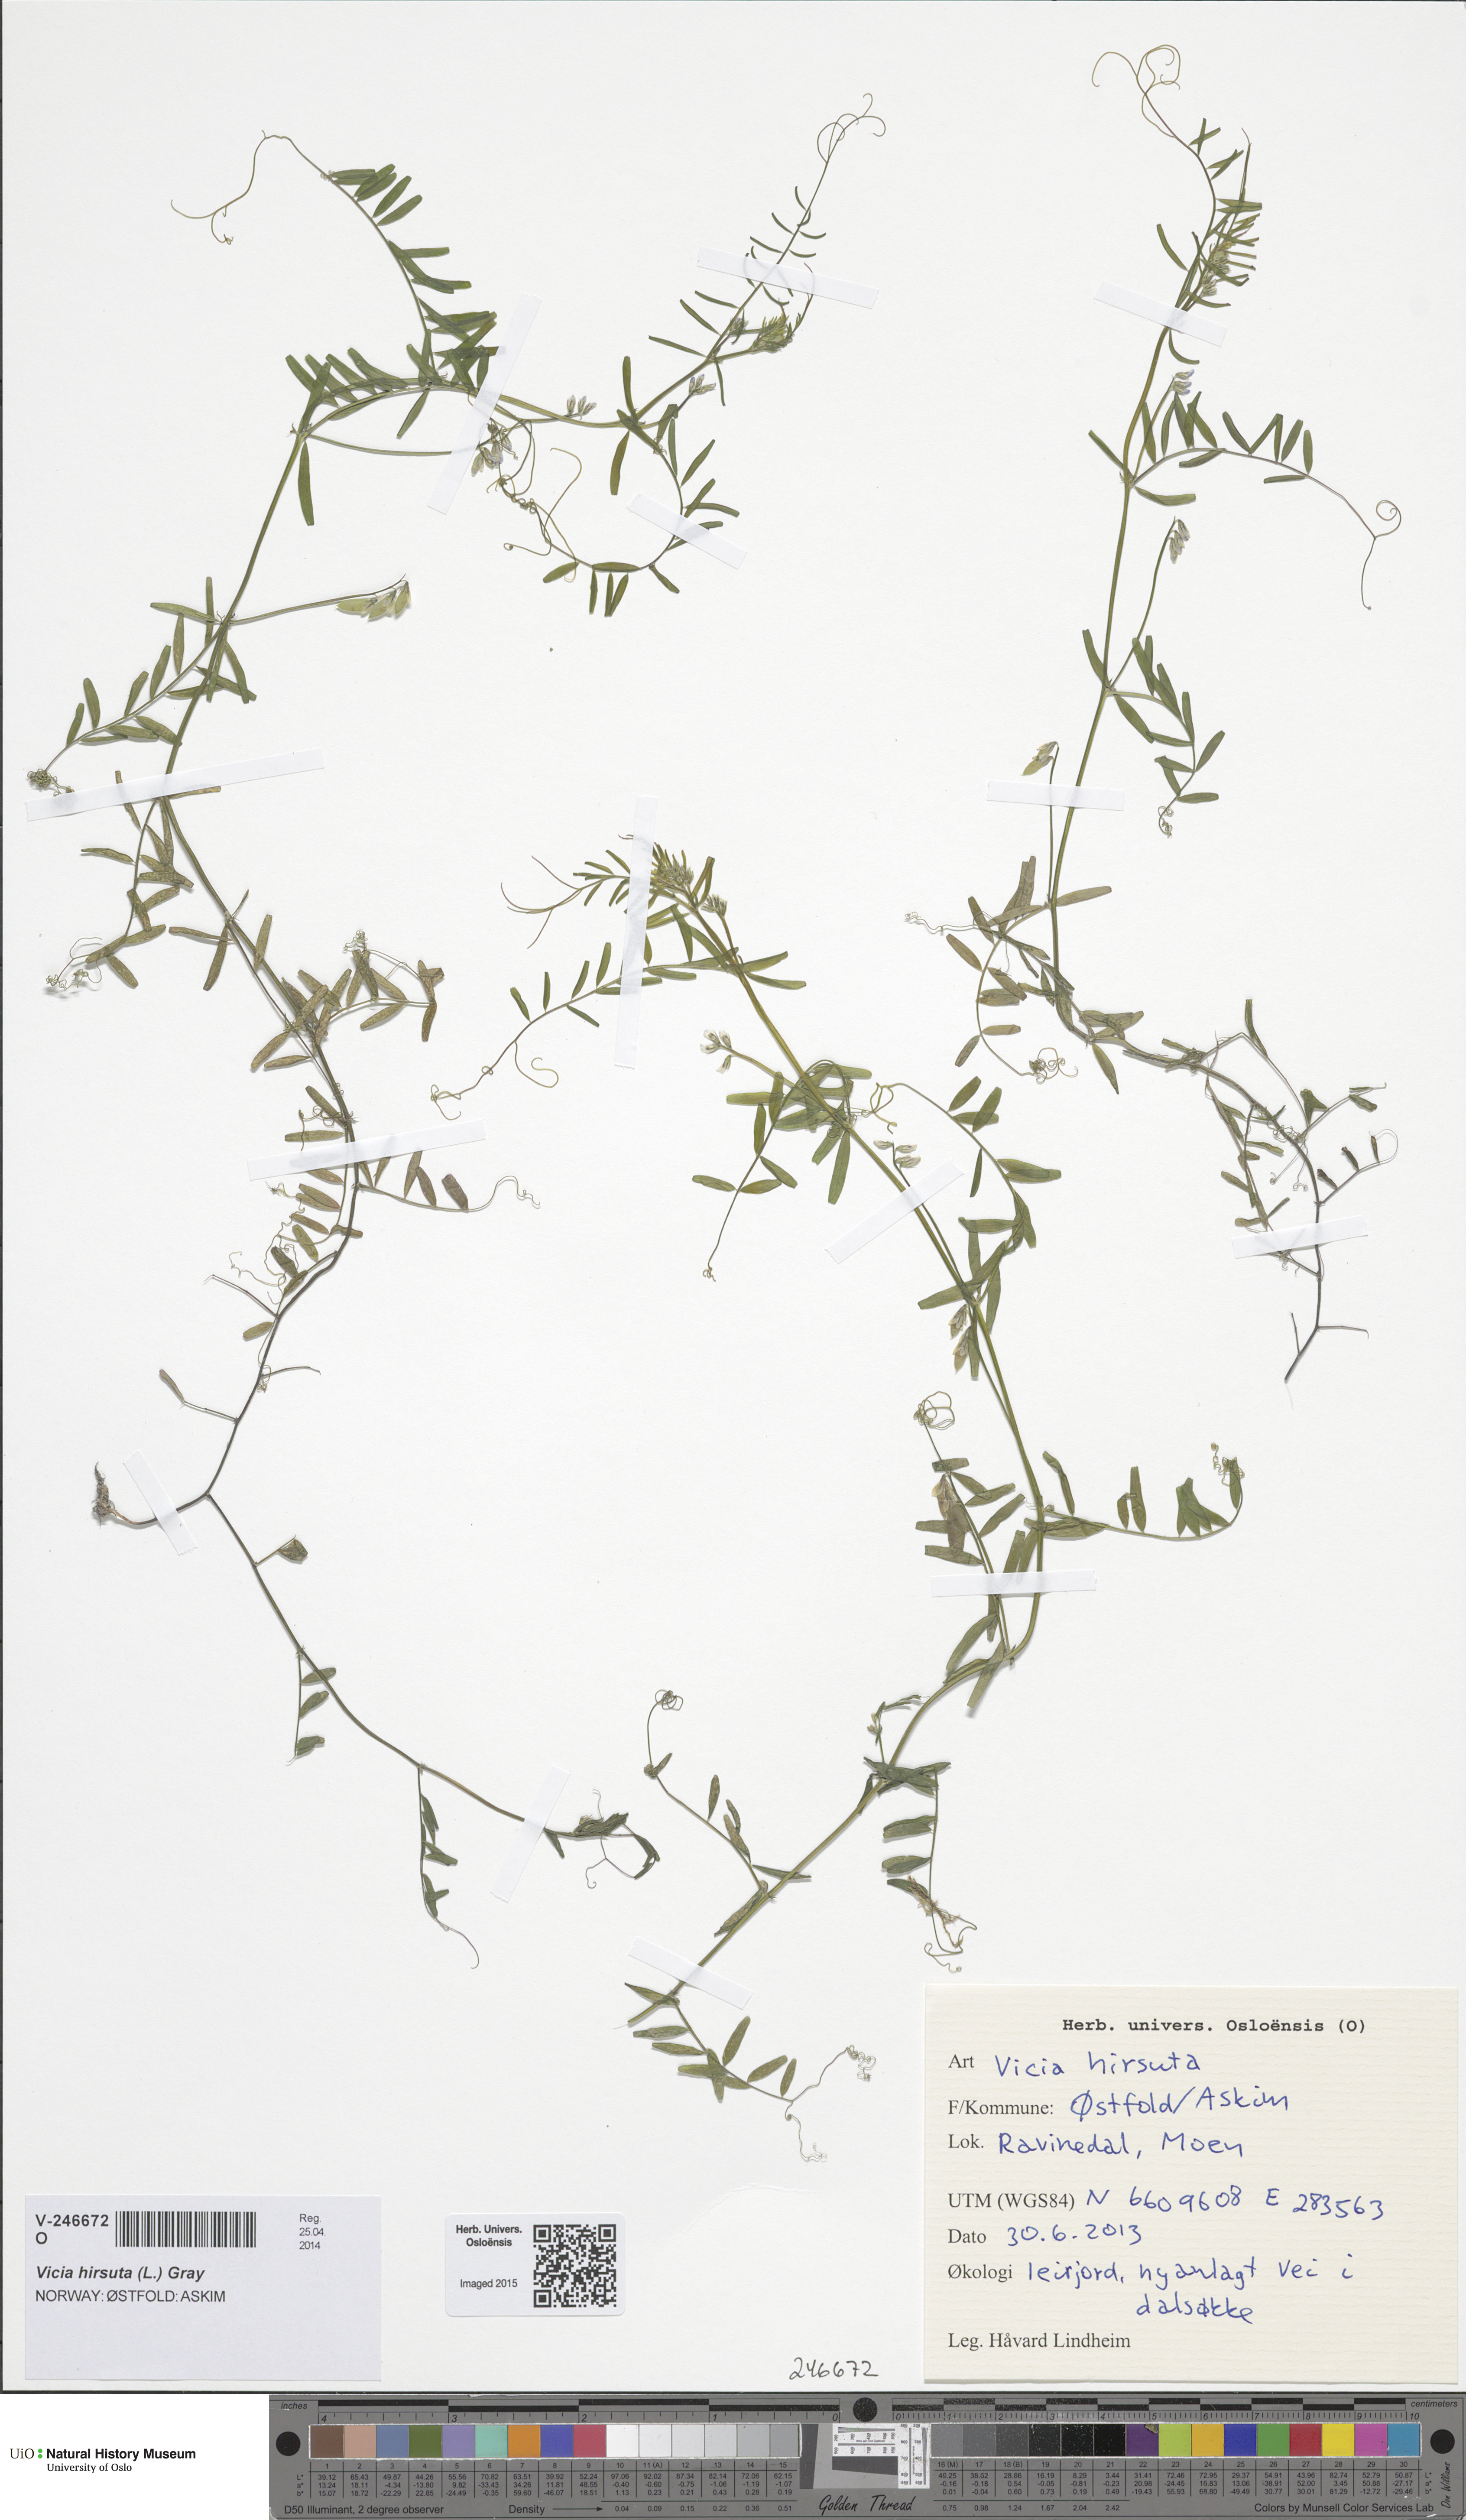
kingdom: Plantae
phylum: Tracheophyta
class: Magnoliopsida
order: Fabales
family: Fabaceae
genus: Vicia
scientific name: Vicia hirsuta
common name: Tiny vetch
